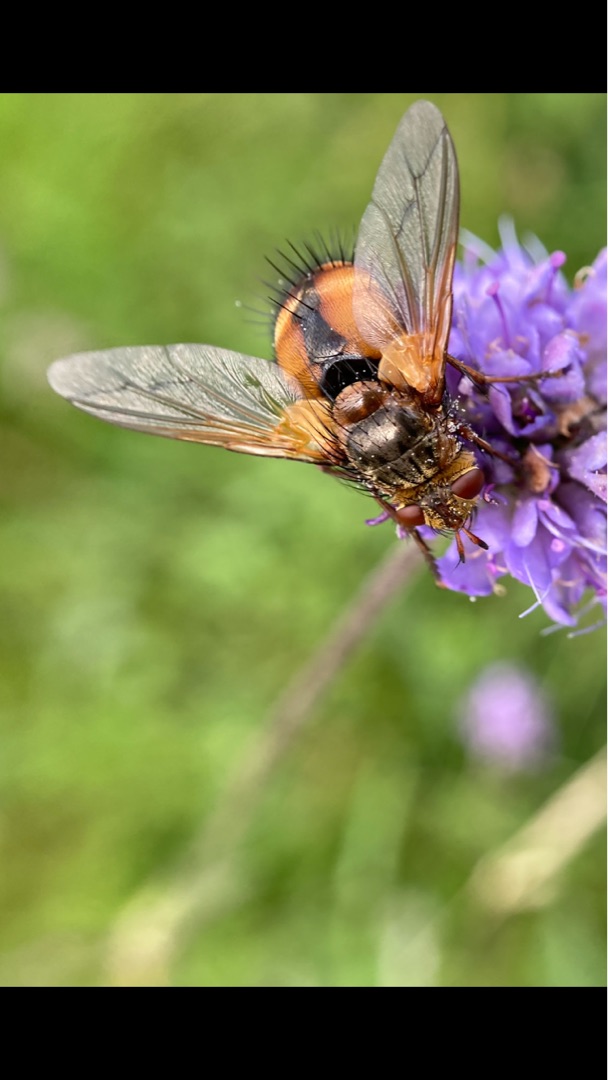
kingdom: Animalia
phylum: Arthropoda
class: Insecta
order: Diptera
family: Tachinidae
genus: Tachina
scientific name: Tachina fera
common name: Mellemfluen oskar
